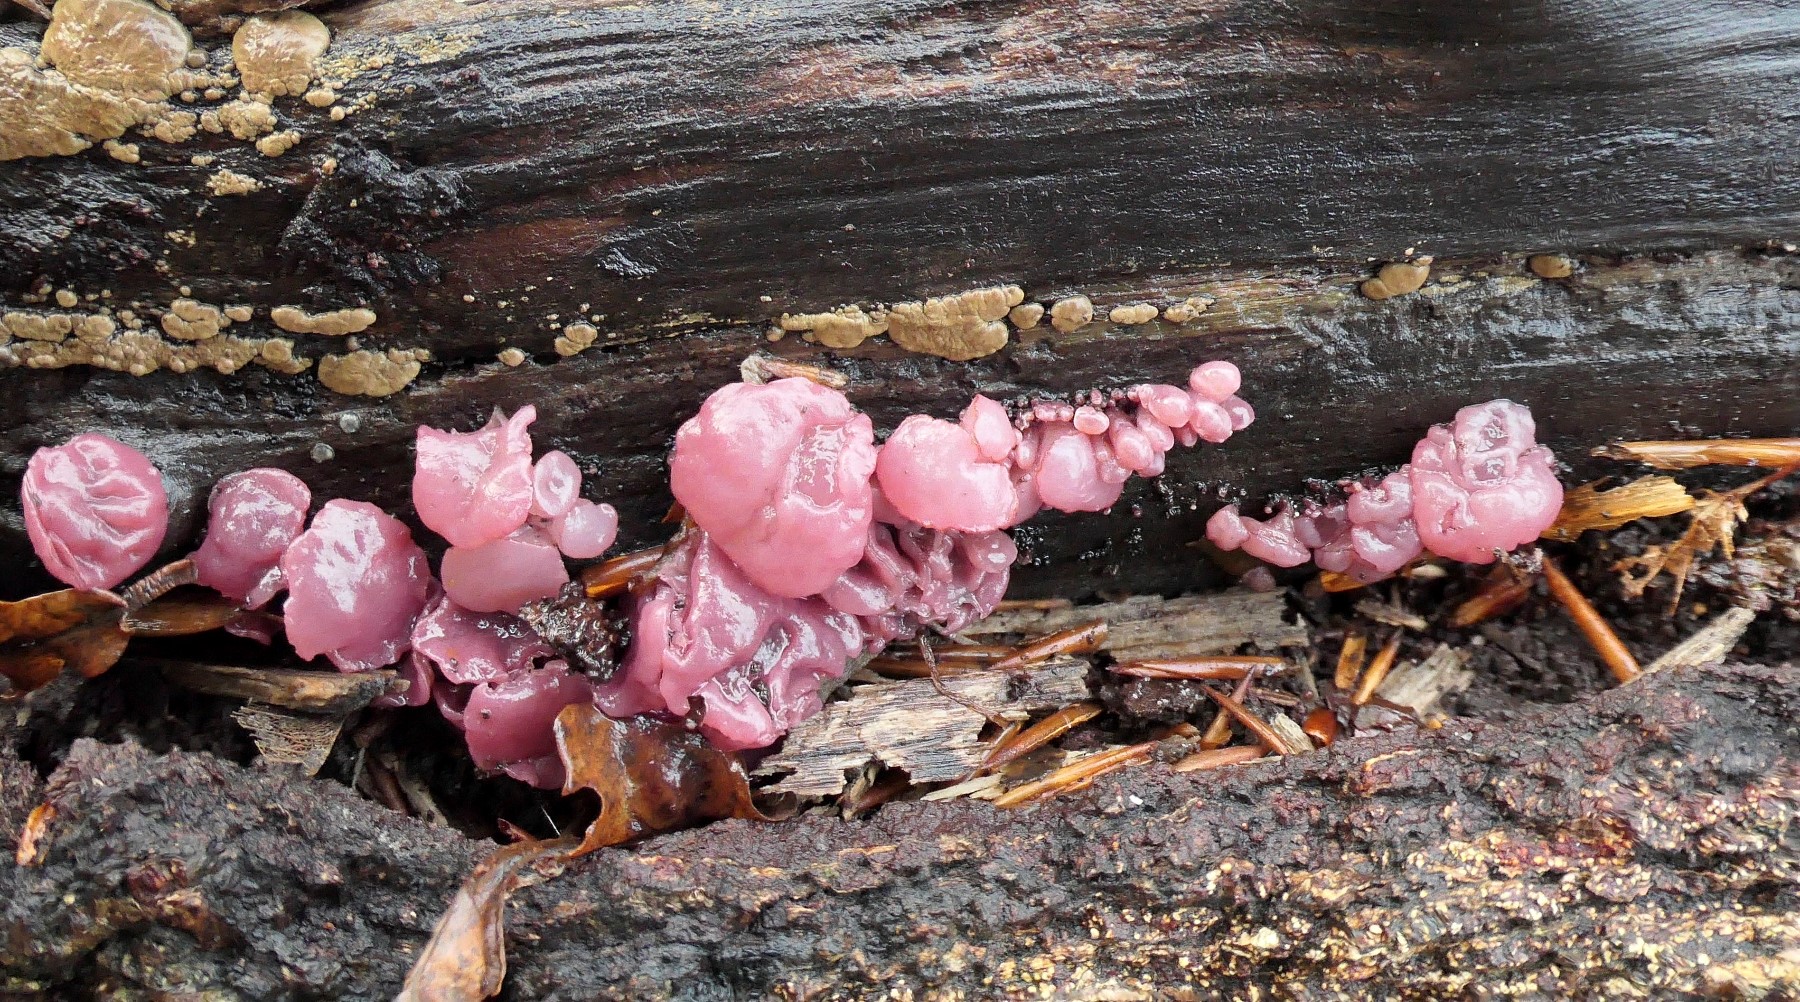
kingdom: Fungi
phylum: Ascomycota
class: Leotiomycetes
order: Helotiales
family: Gelatinodiscaceae
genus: Ascocoryne
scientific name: Ascocoryne sarcoides
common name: rødlilla sejskive
